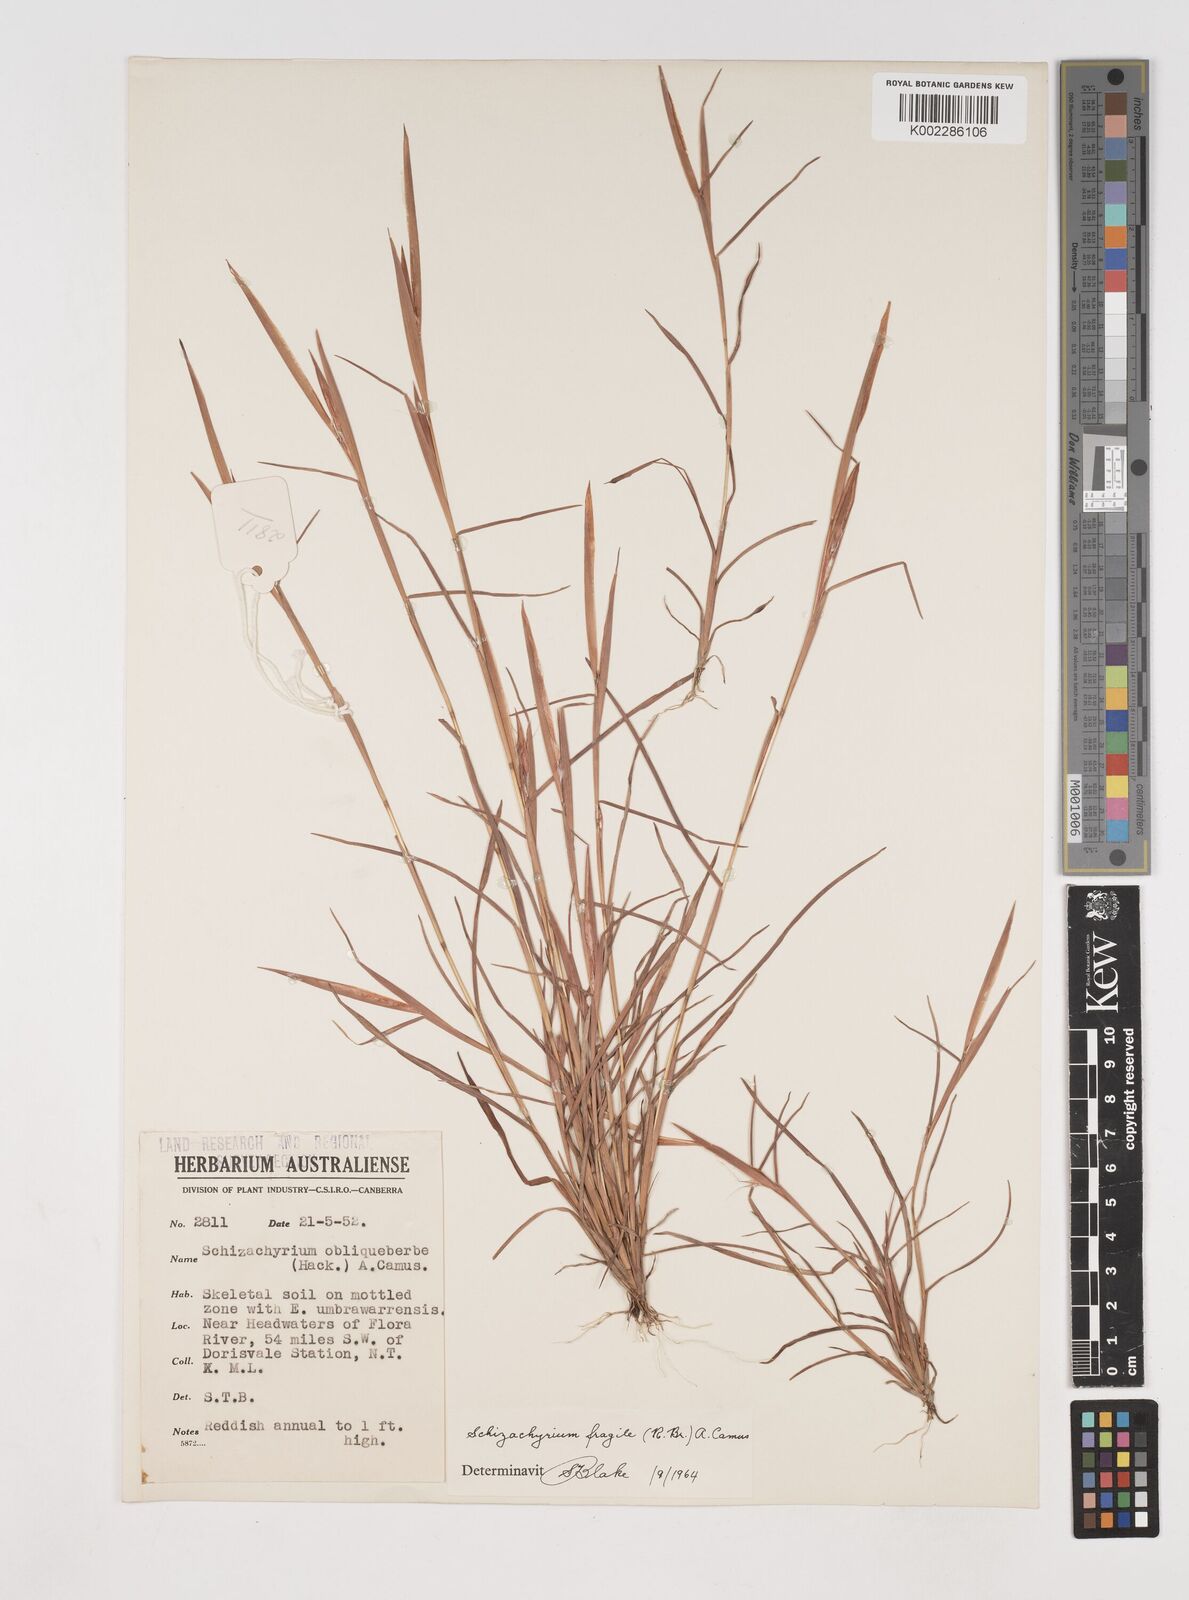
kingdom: Plantae
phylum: Tracheophyta
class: Liliopsida
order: Poales
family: Poaceae
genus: Schizachyrium
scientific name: Schizachyrium fragile
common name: Red spathe grass
